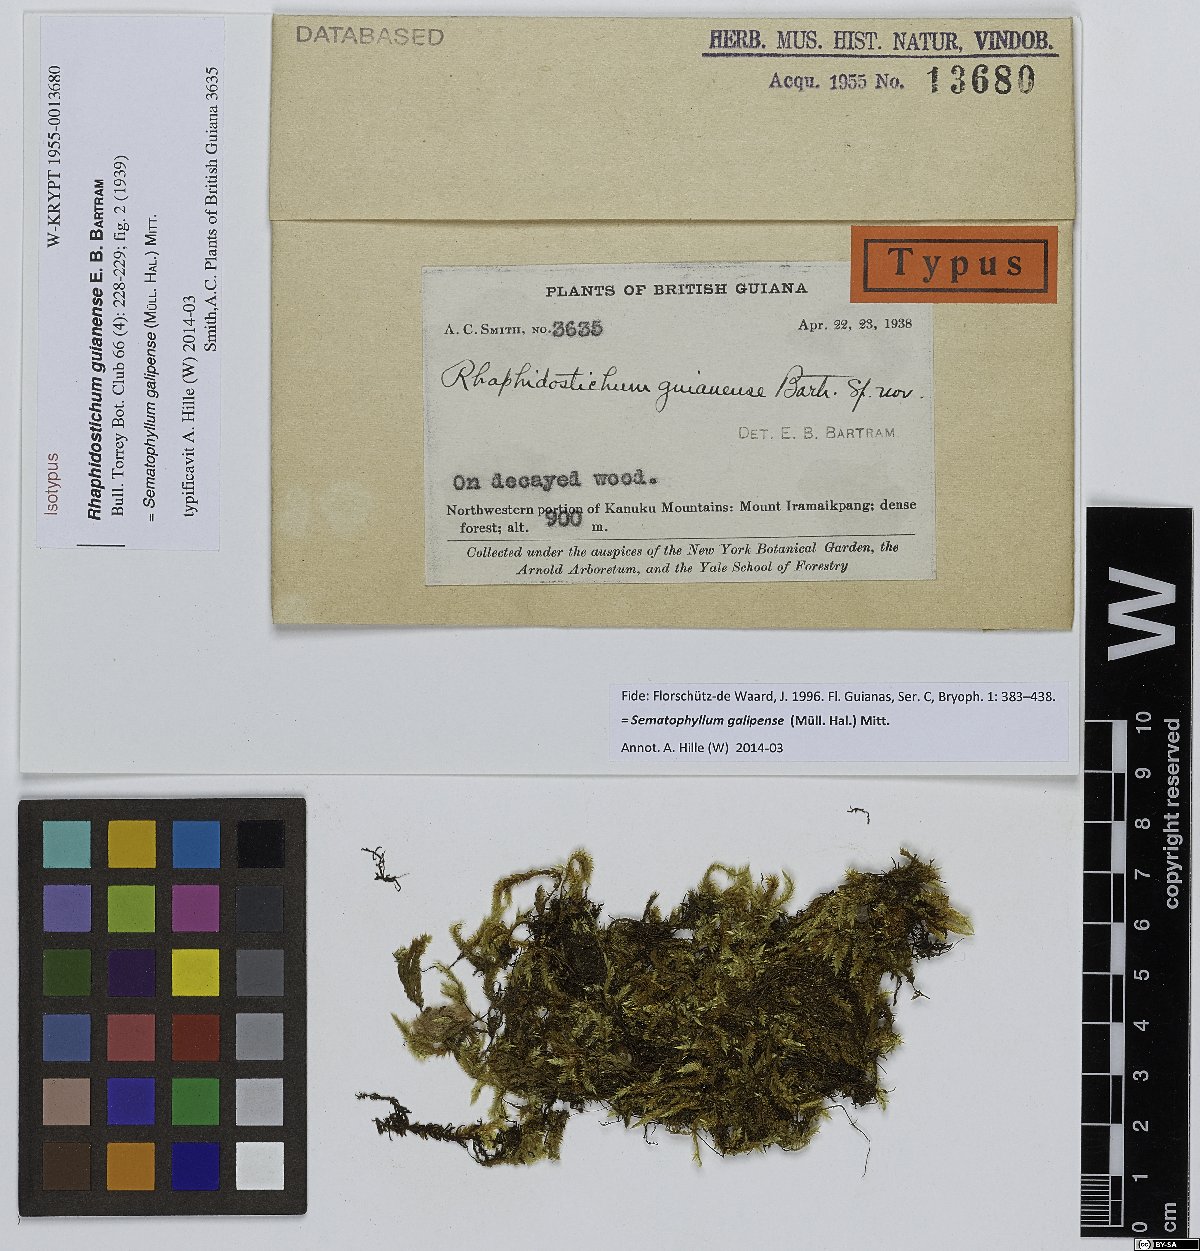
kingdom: Plantae
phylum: Bryophyta
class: Bryopsida
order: Hypnales
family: Sematophyllaceae
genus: Aptychopsis
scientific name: Aptychopsis guianensis
